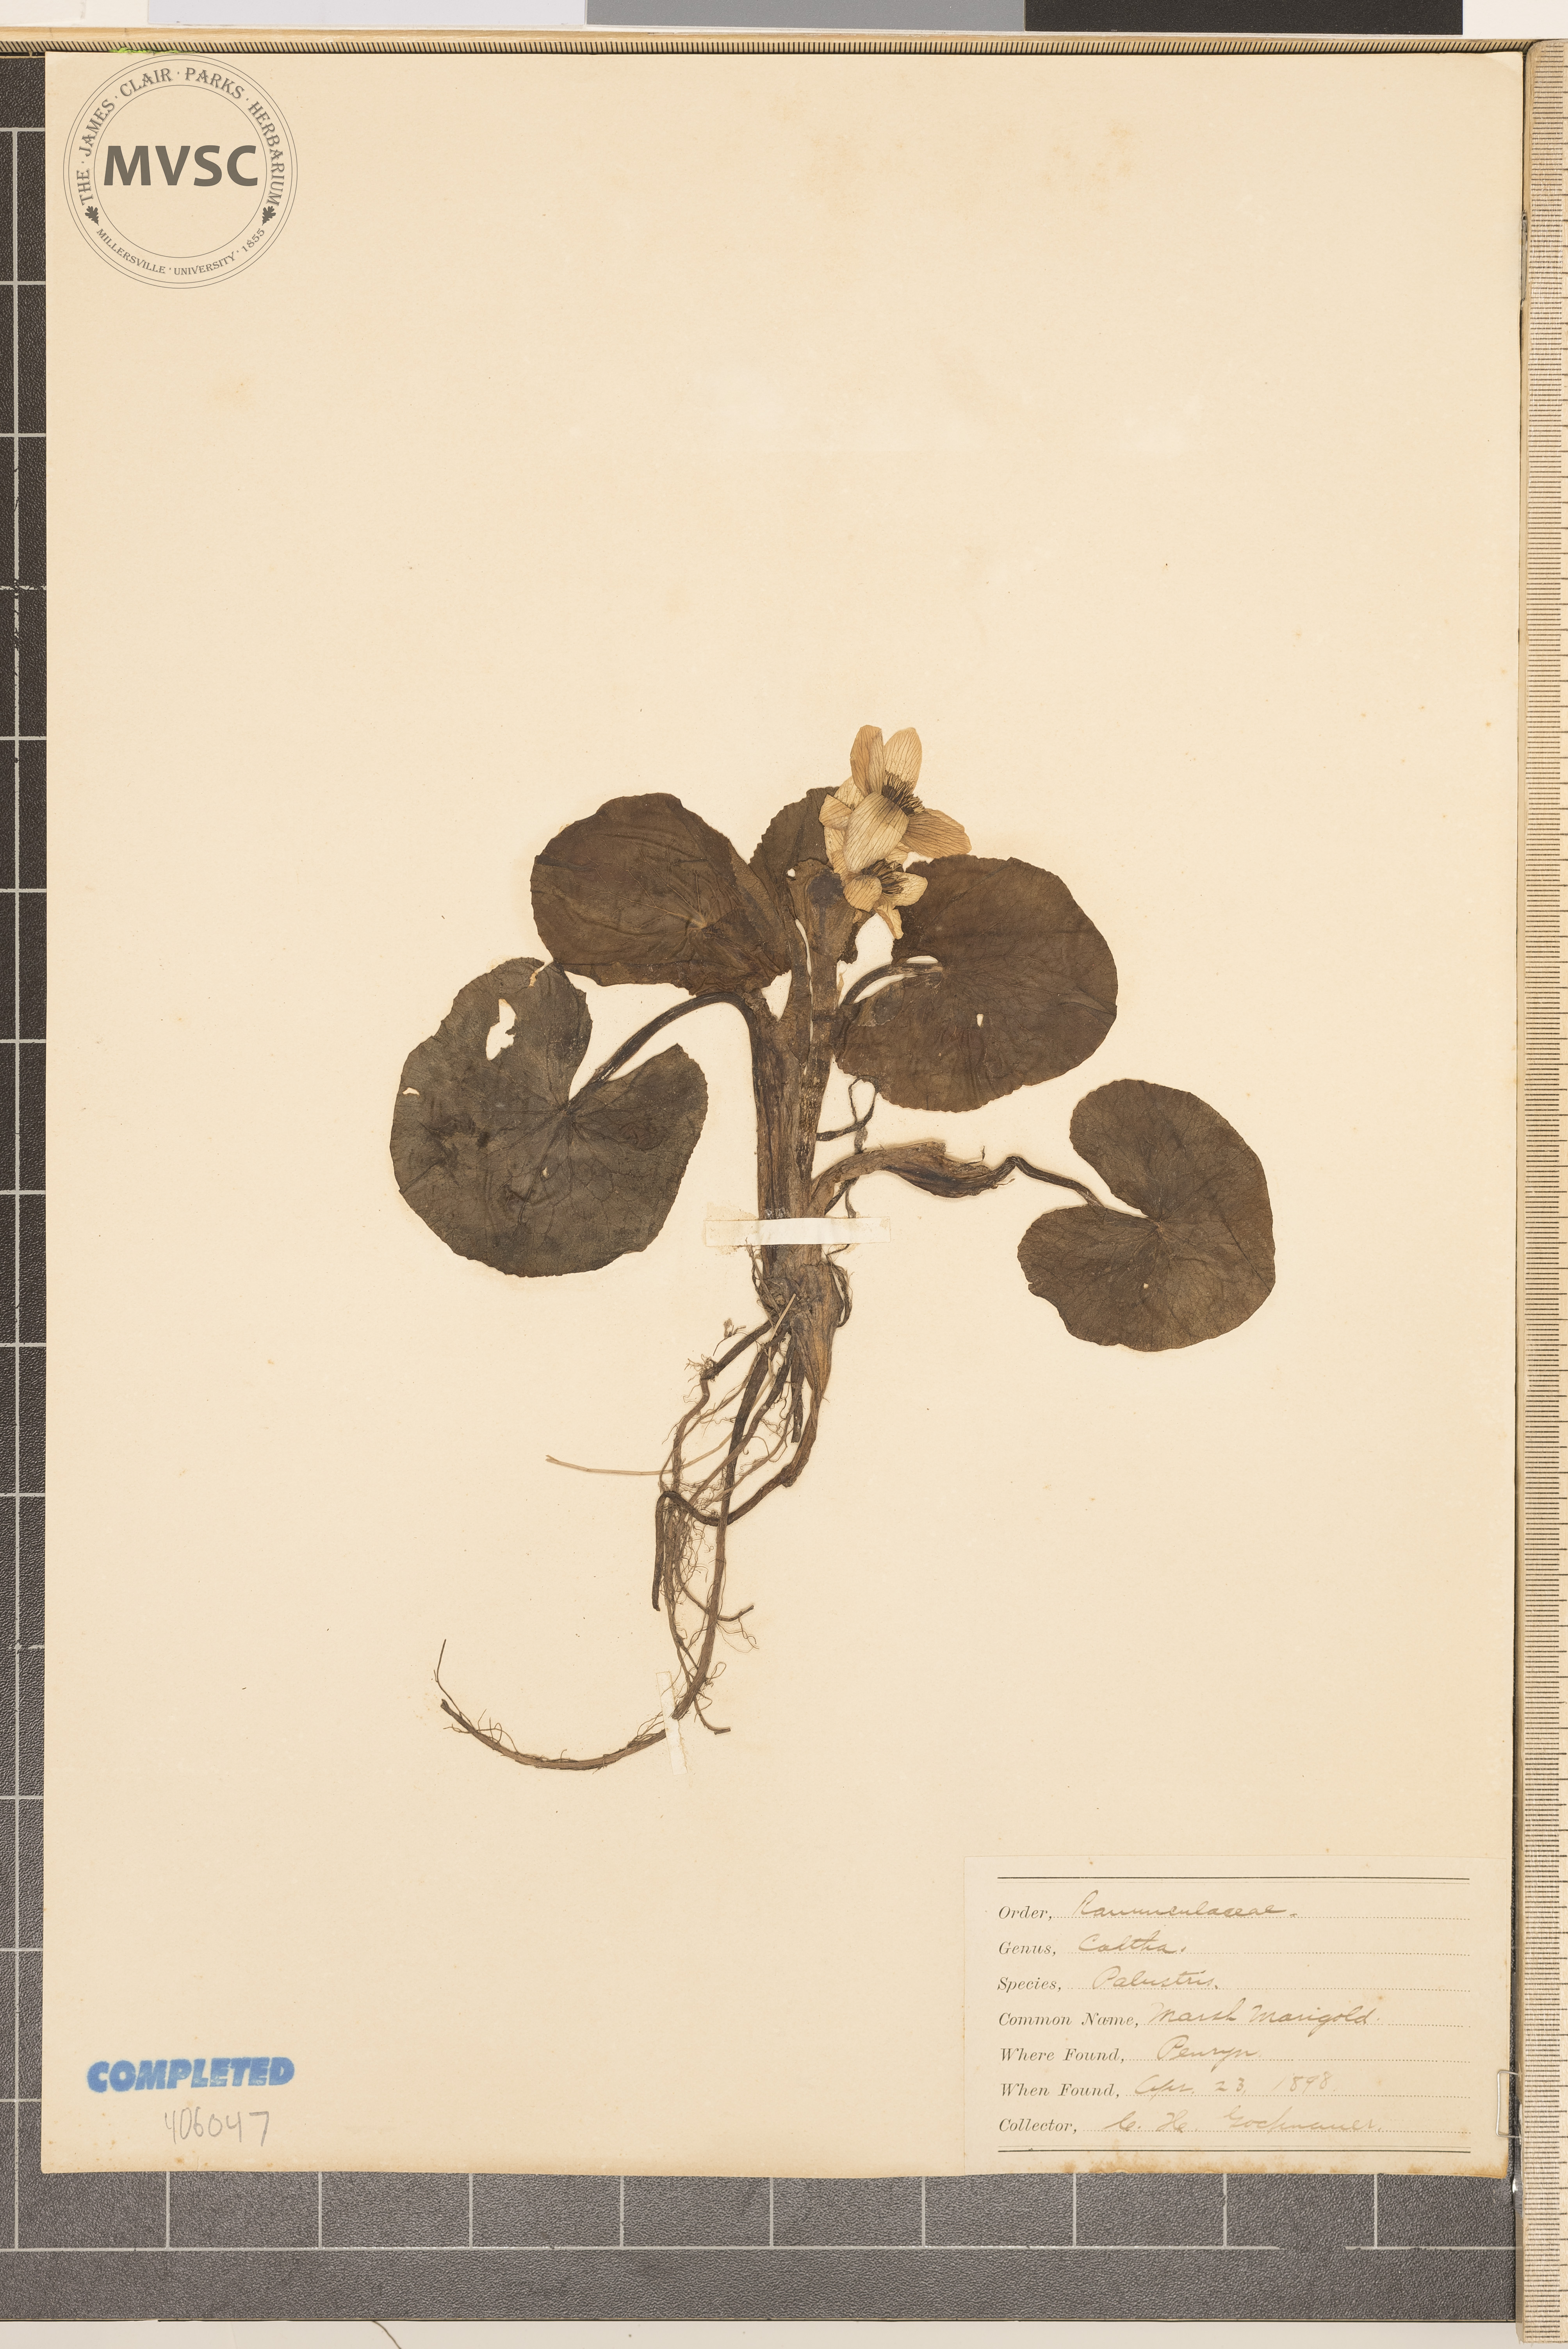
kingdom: Plantae
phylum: Tracheophyta
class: Magnoliopsida
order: Ranunculales
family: Ranunculaceae
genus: Caltha
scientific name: Caltha palustris
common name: Marsh marigold
